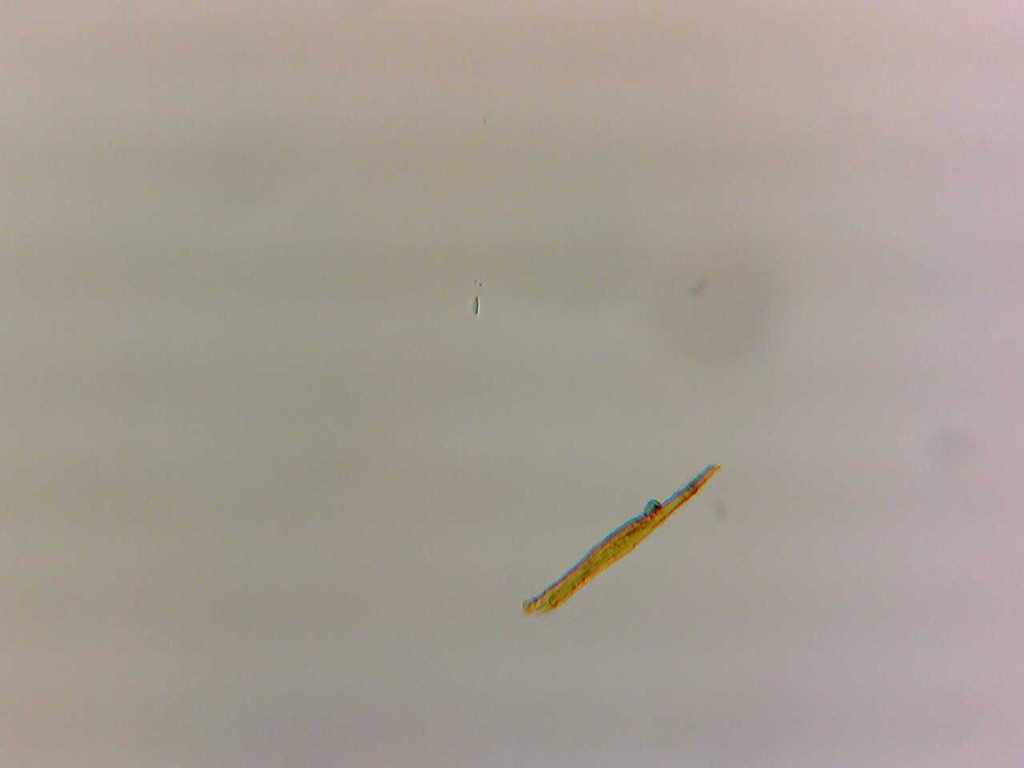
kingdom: Fungi
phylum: Basidiomycota
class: Agaricomycetes
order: Agaricales
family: Agaricaceae
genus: Cystodermella
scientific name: Cystodermella cinnabarina
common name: cinnober-grynhat
